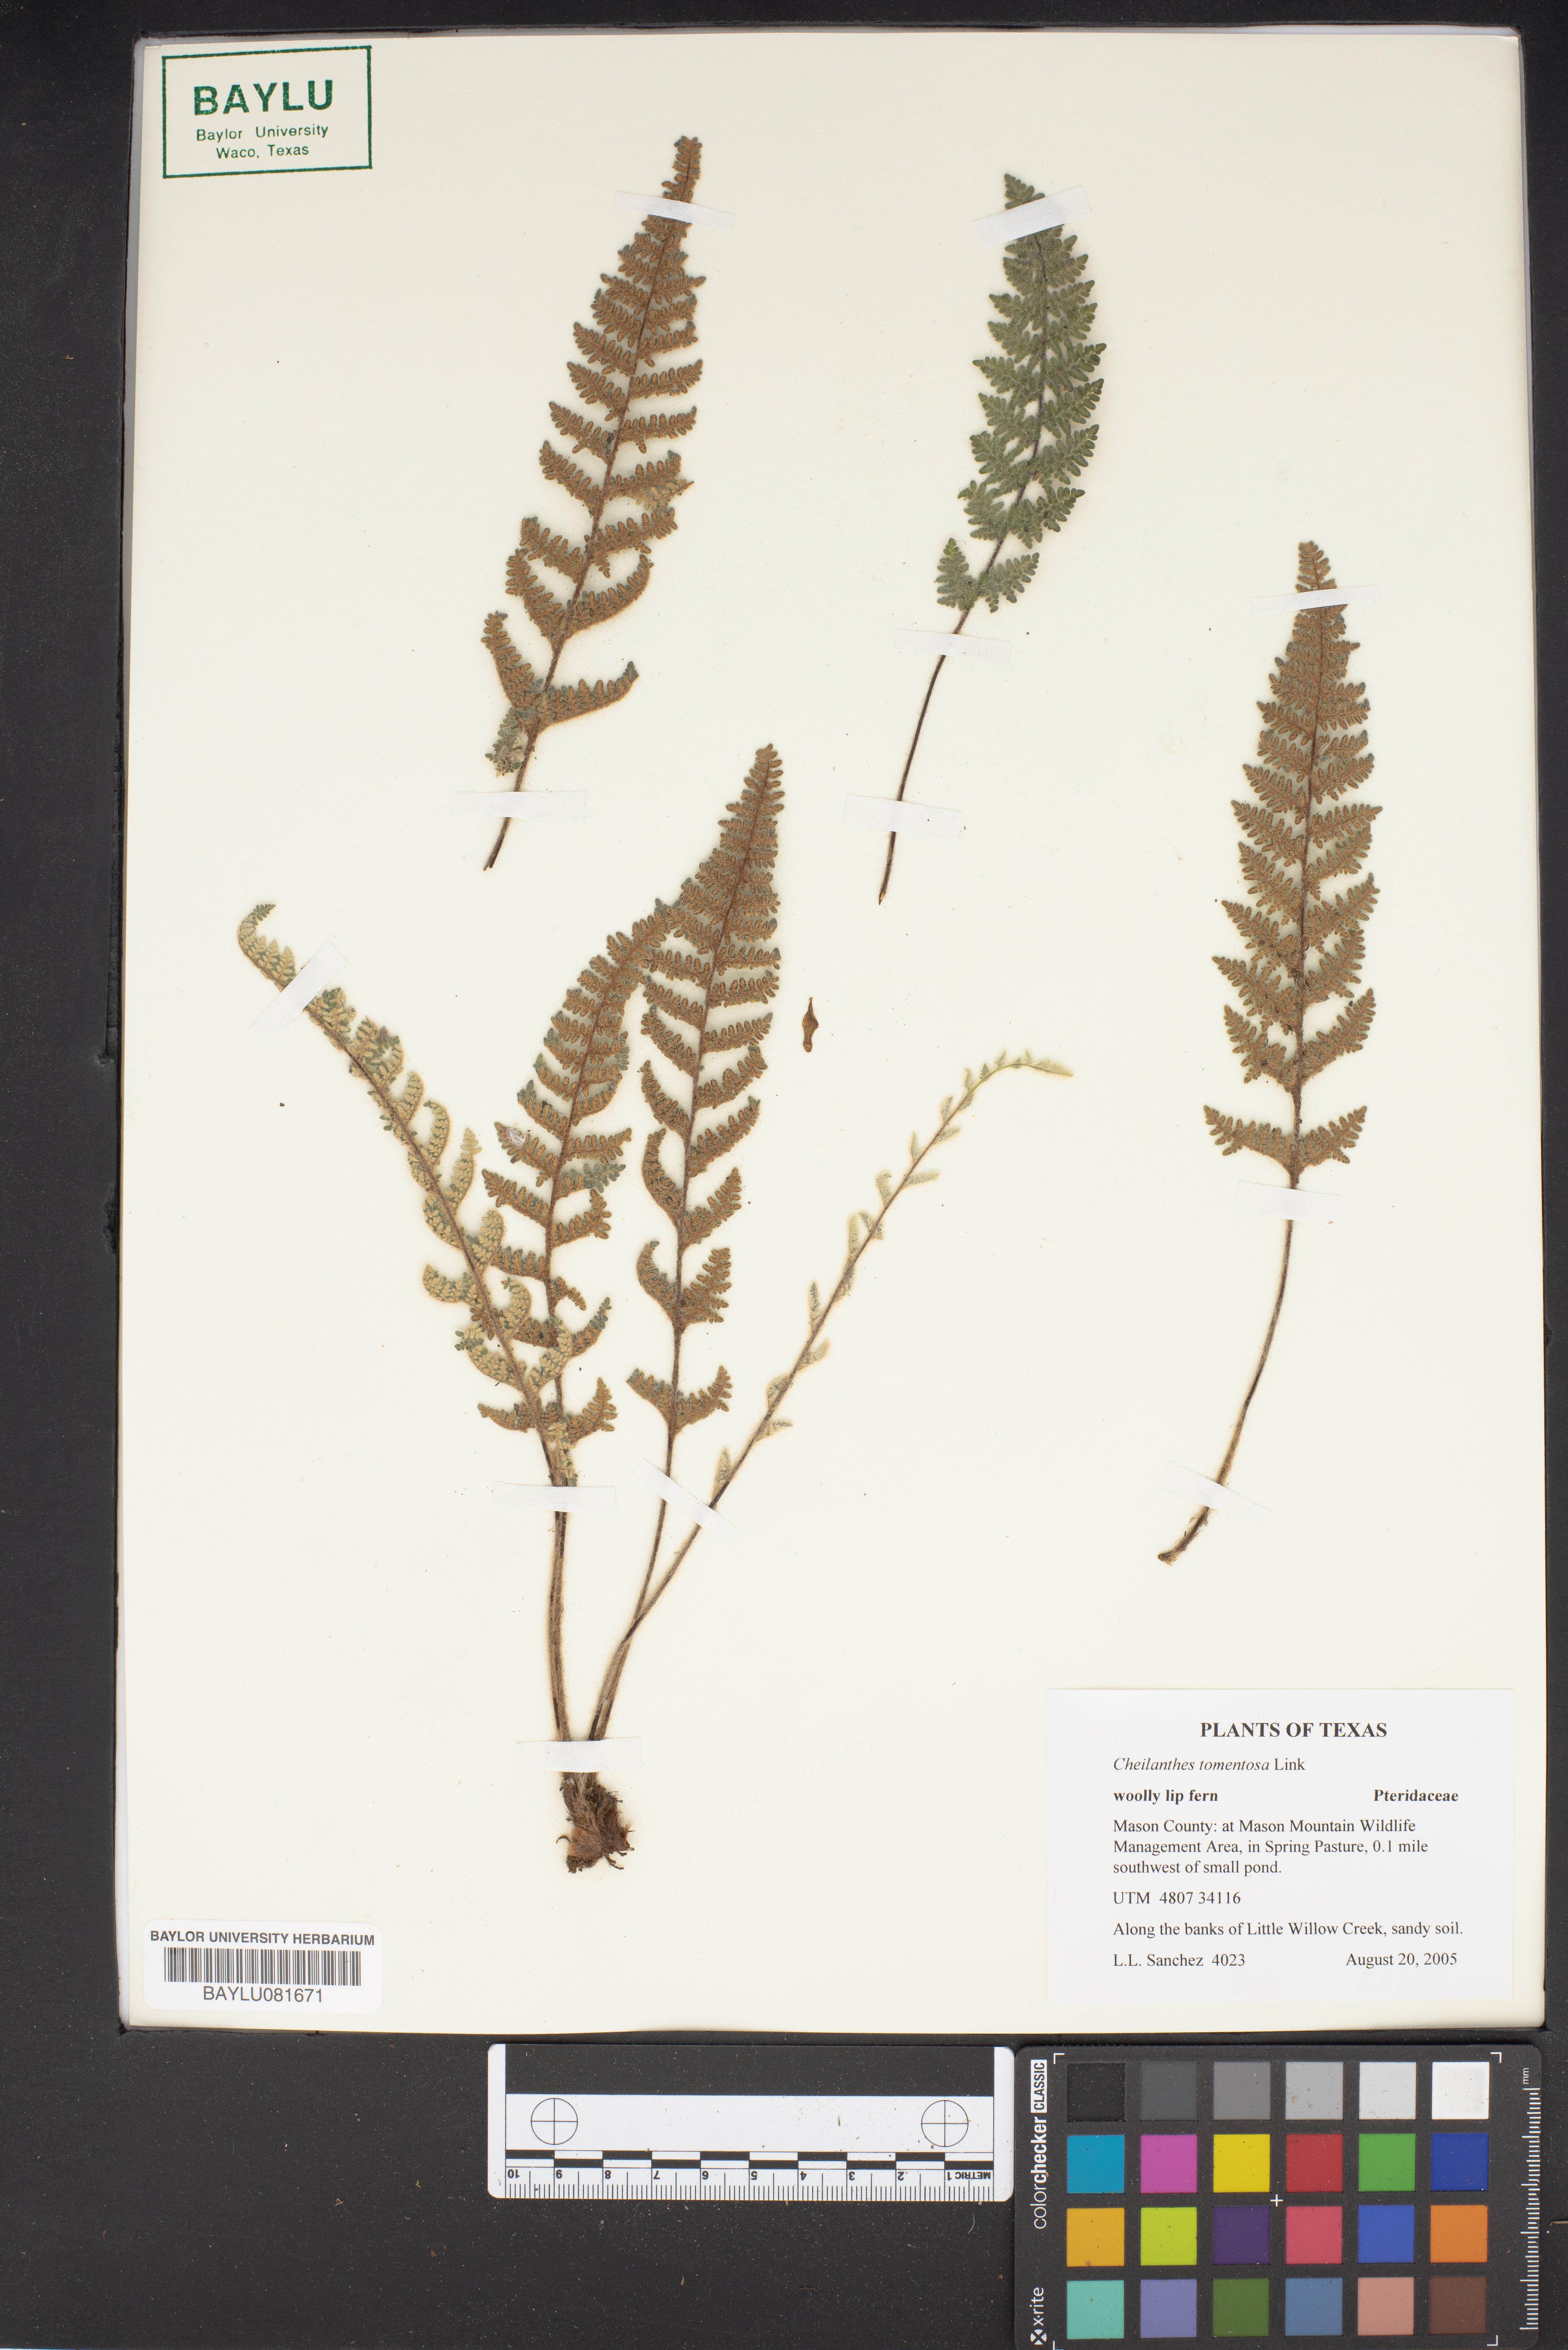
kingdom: Plantae
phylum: Tracheophyta
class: Polypodiopsida
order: Polypodiales
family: Pteridaceae
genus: Myriopteris
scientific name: Myriopteris tomentosa
